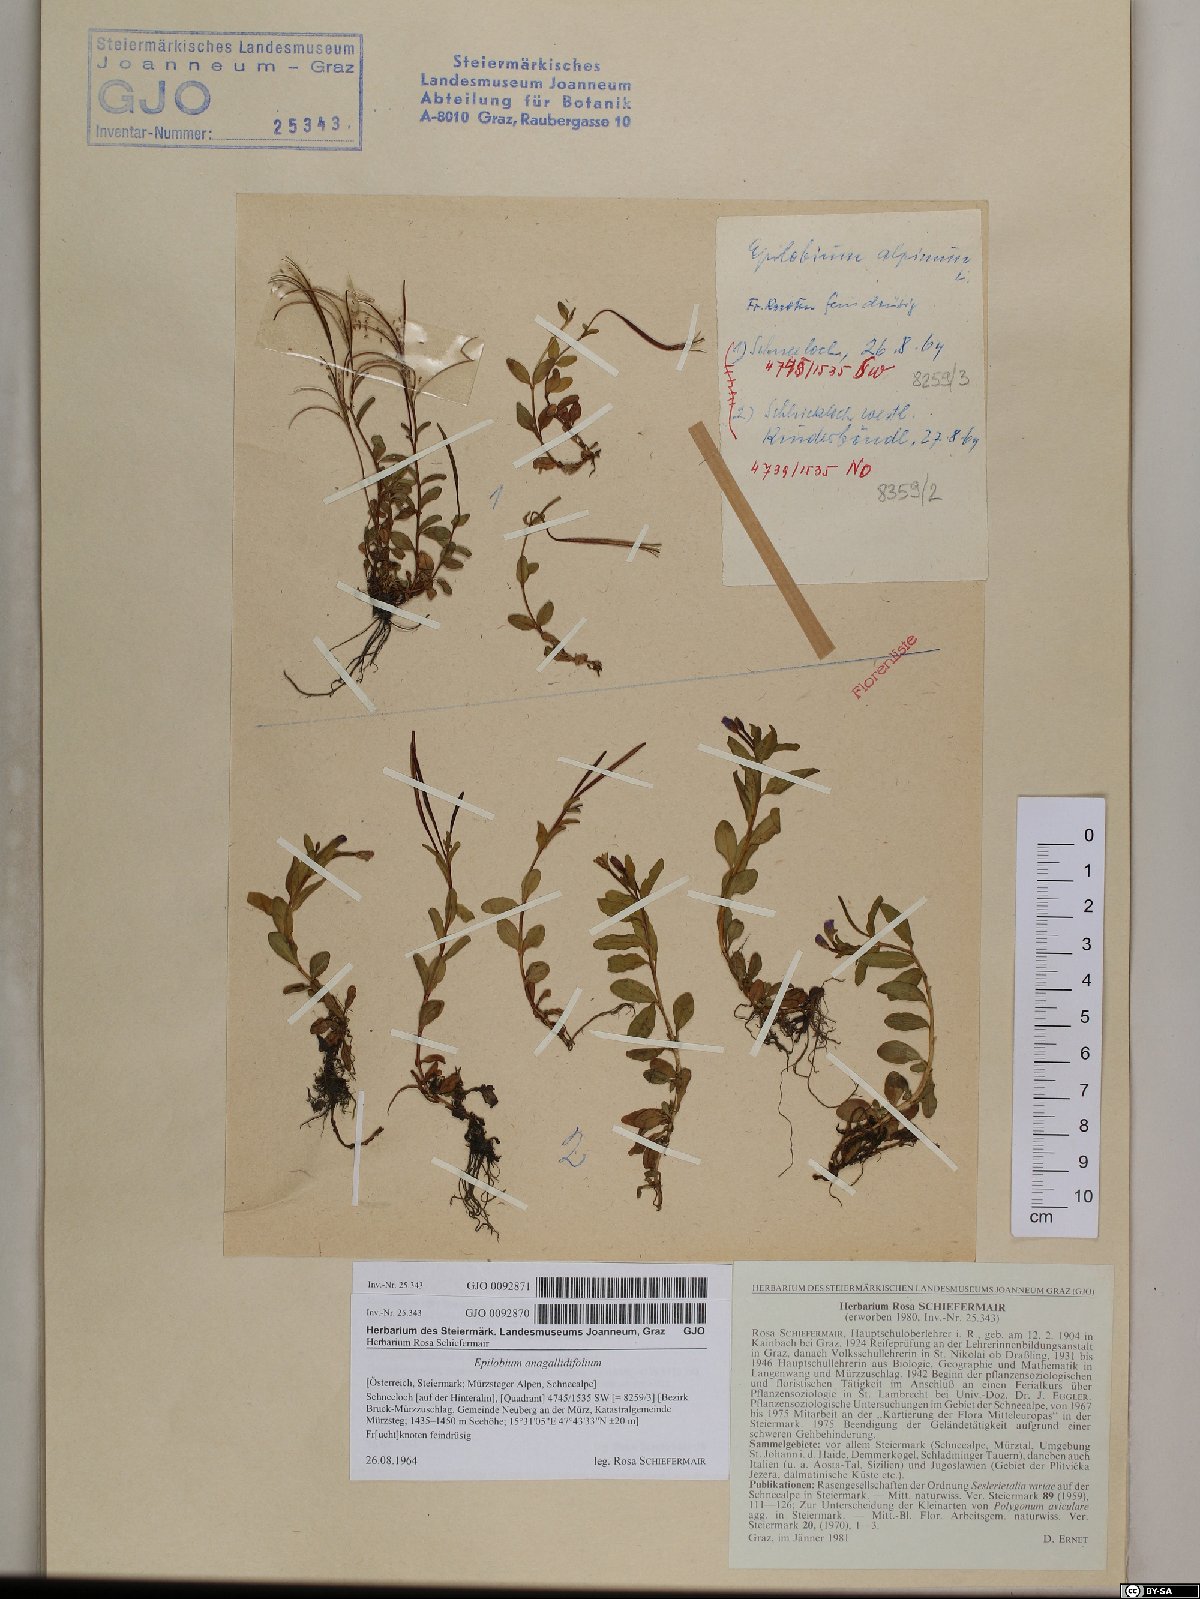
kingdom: Plantae
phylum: Tracheophyta
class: Magnoliopsida
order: Myrtales
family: Onagraceae
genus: Epilobium
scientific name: Epilobium anagallidifolium
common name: Alpine willowherb
